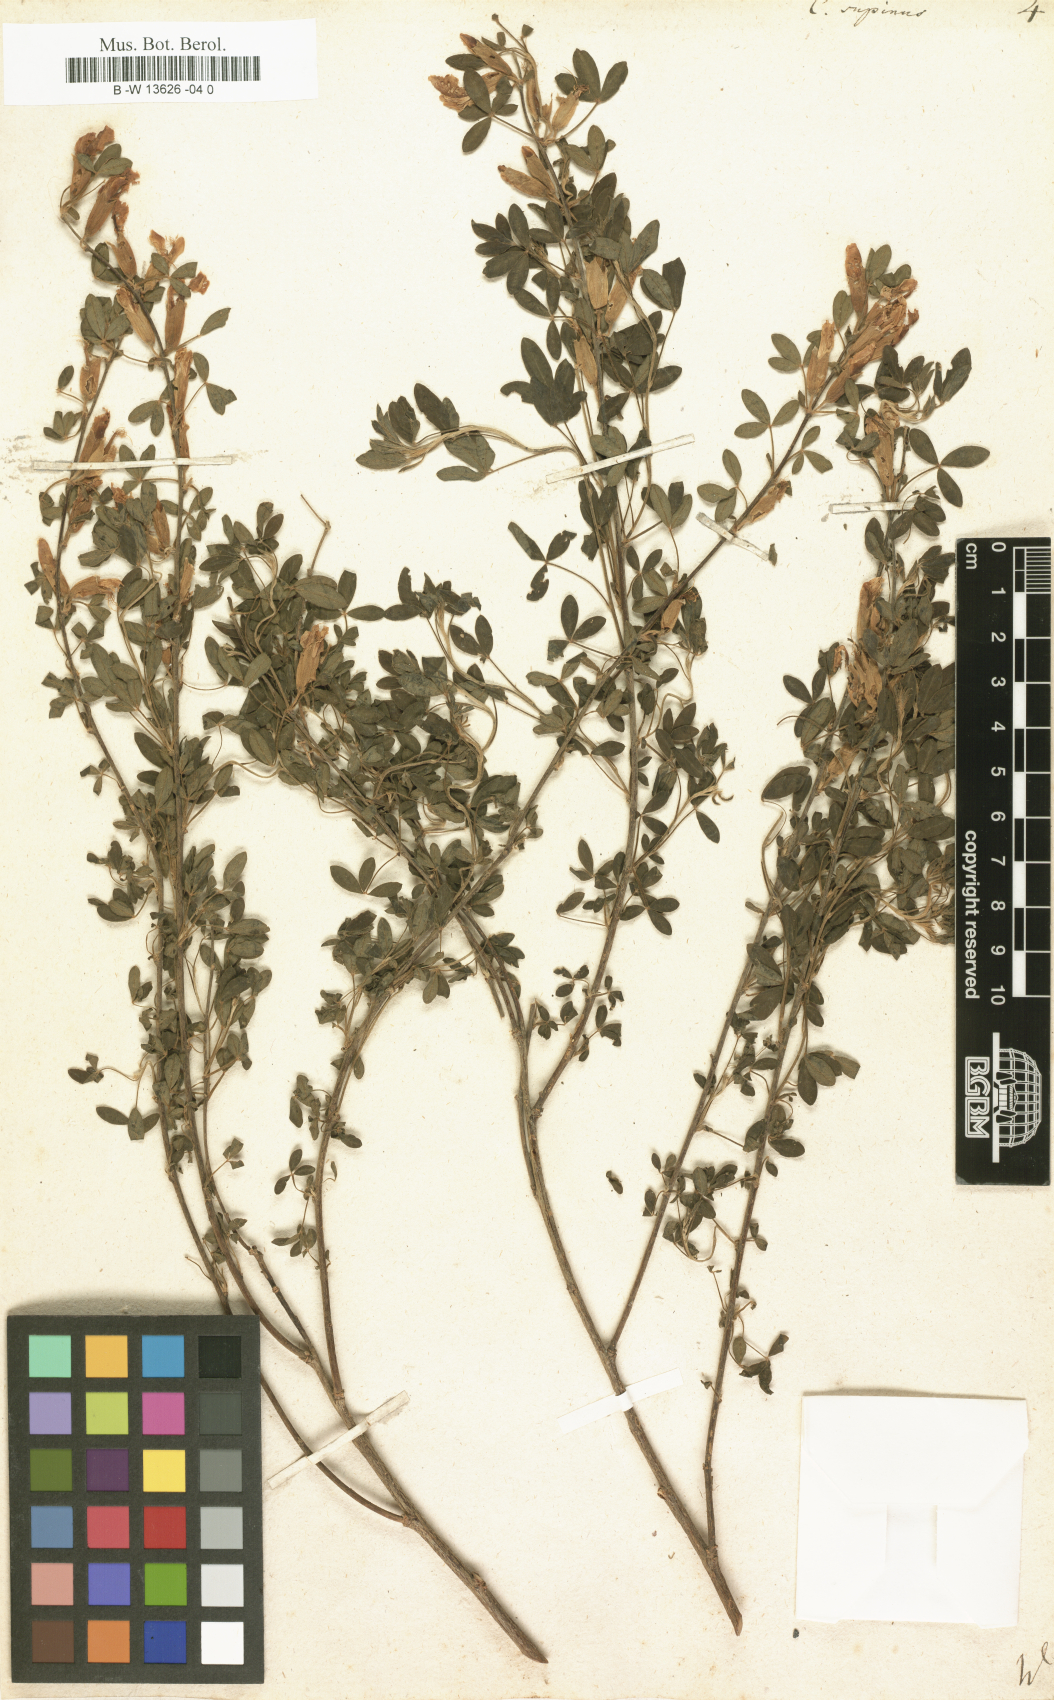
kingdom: Plantae
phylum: Tracheophyta
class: Magnoliopsida
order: Fabales
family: Fabaceae
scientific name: Fabaceae
